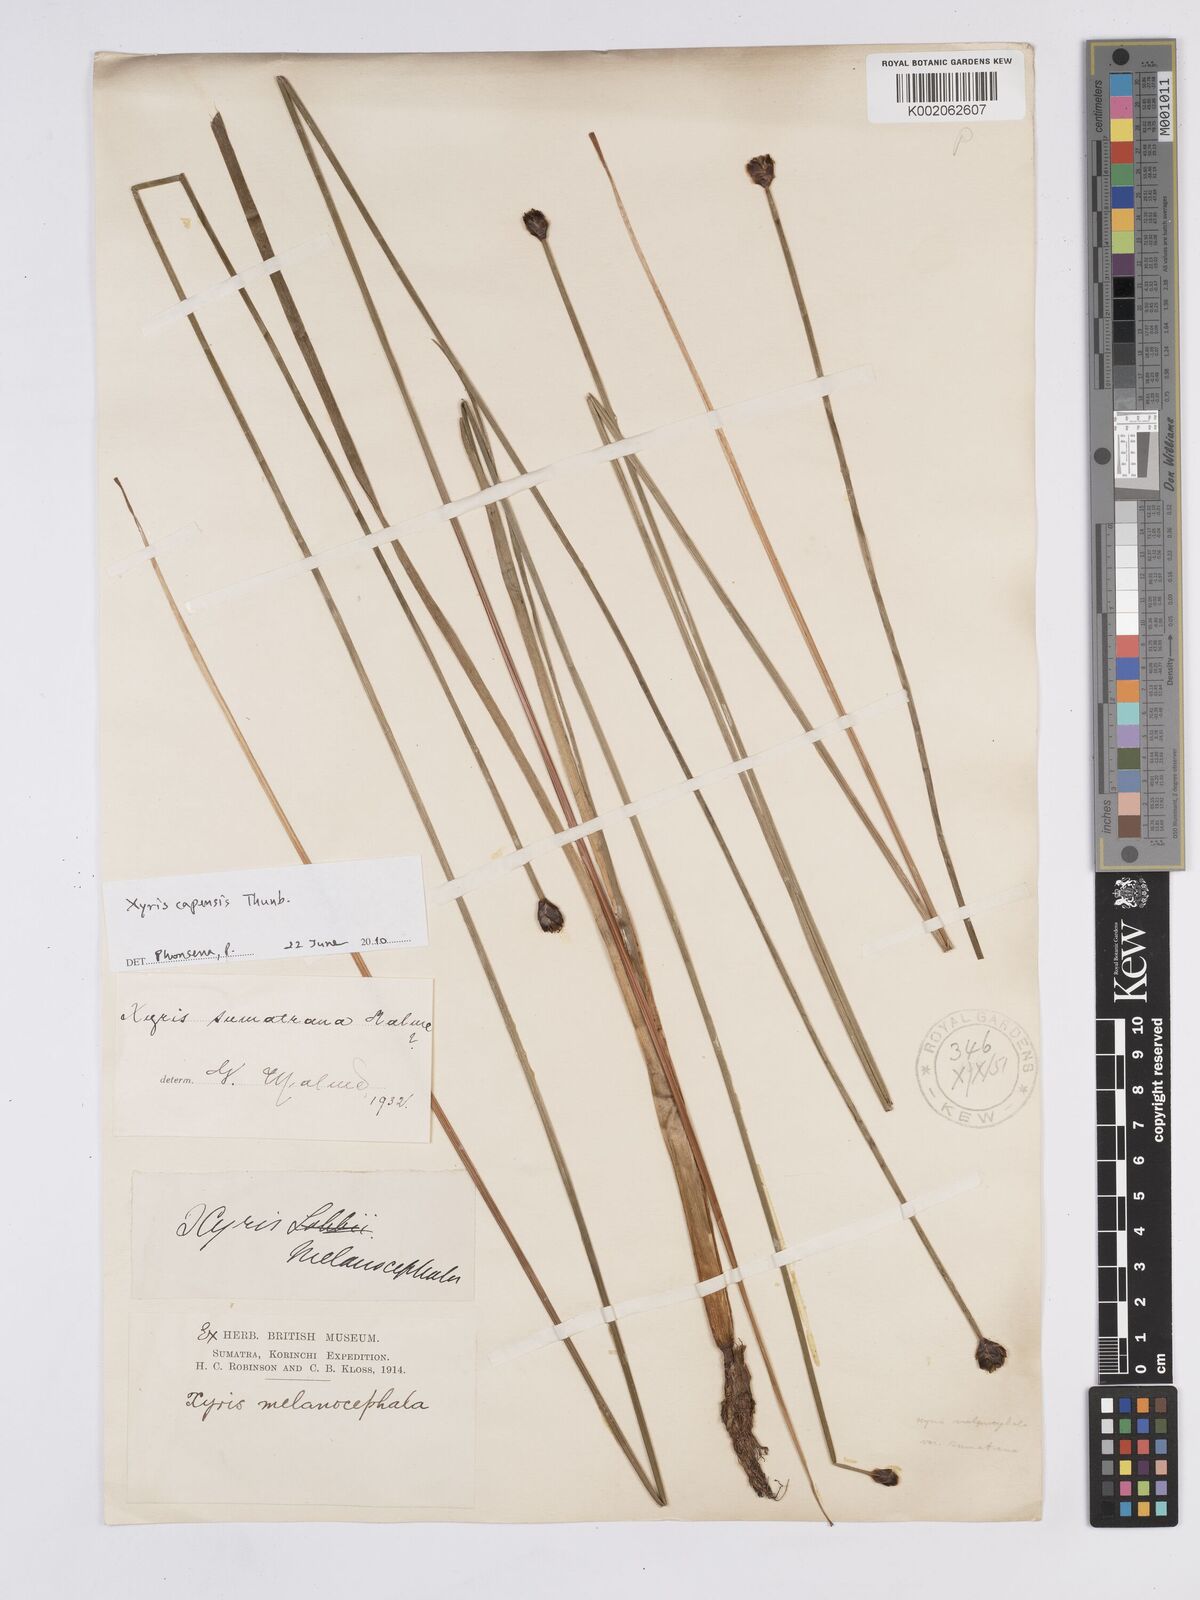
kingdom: Plantae
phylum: Tracheophyta
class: Liliopsida
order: Poales
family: Xyridaceae
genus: Xyris
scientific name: Xyris capensis
